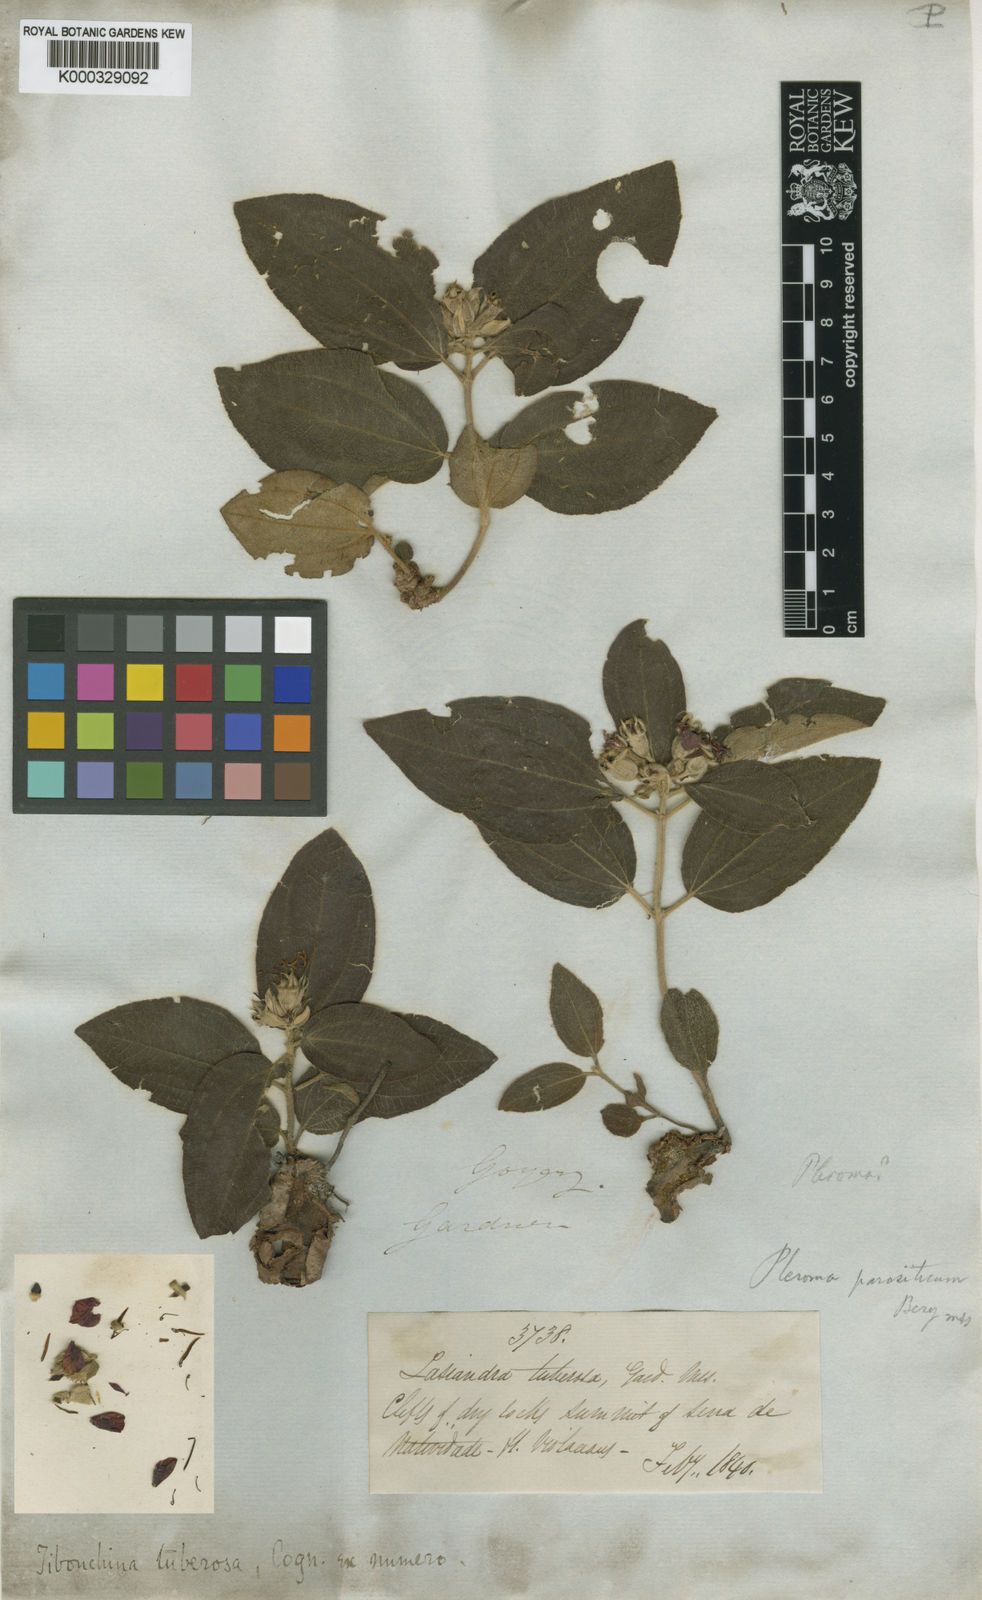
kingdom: Plantae
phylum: Tracheophyta
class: Magnoliopsida
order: Myrtales
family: Melastomataceae
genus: Pleroma
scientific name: Pleroma tuberosum
